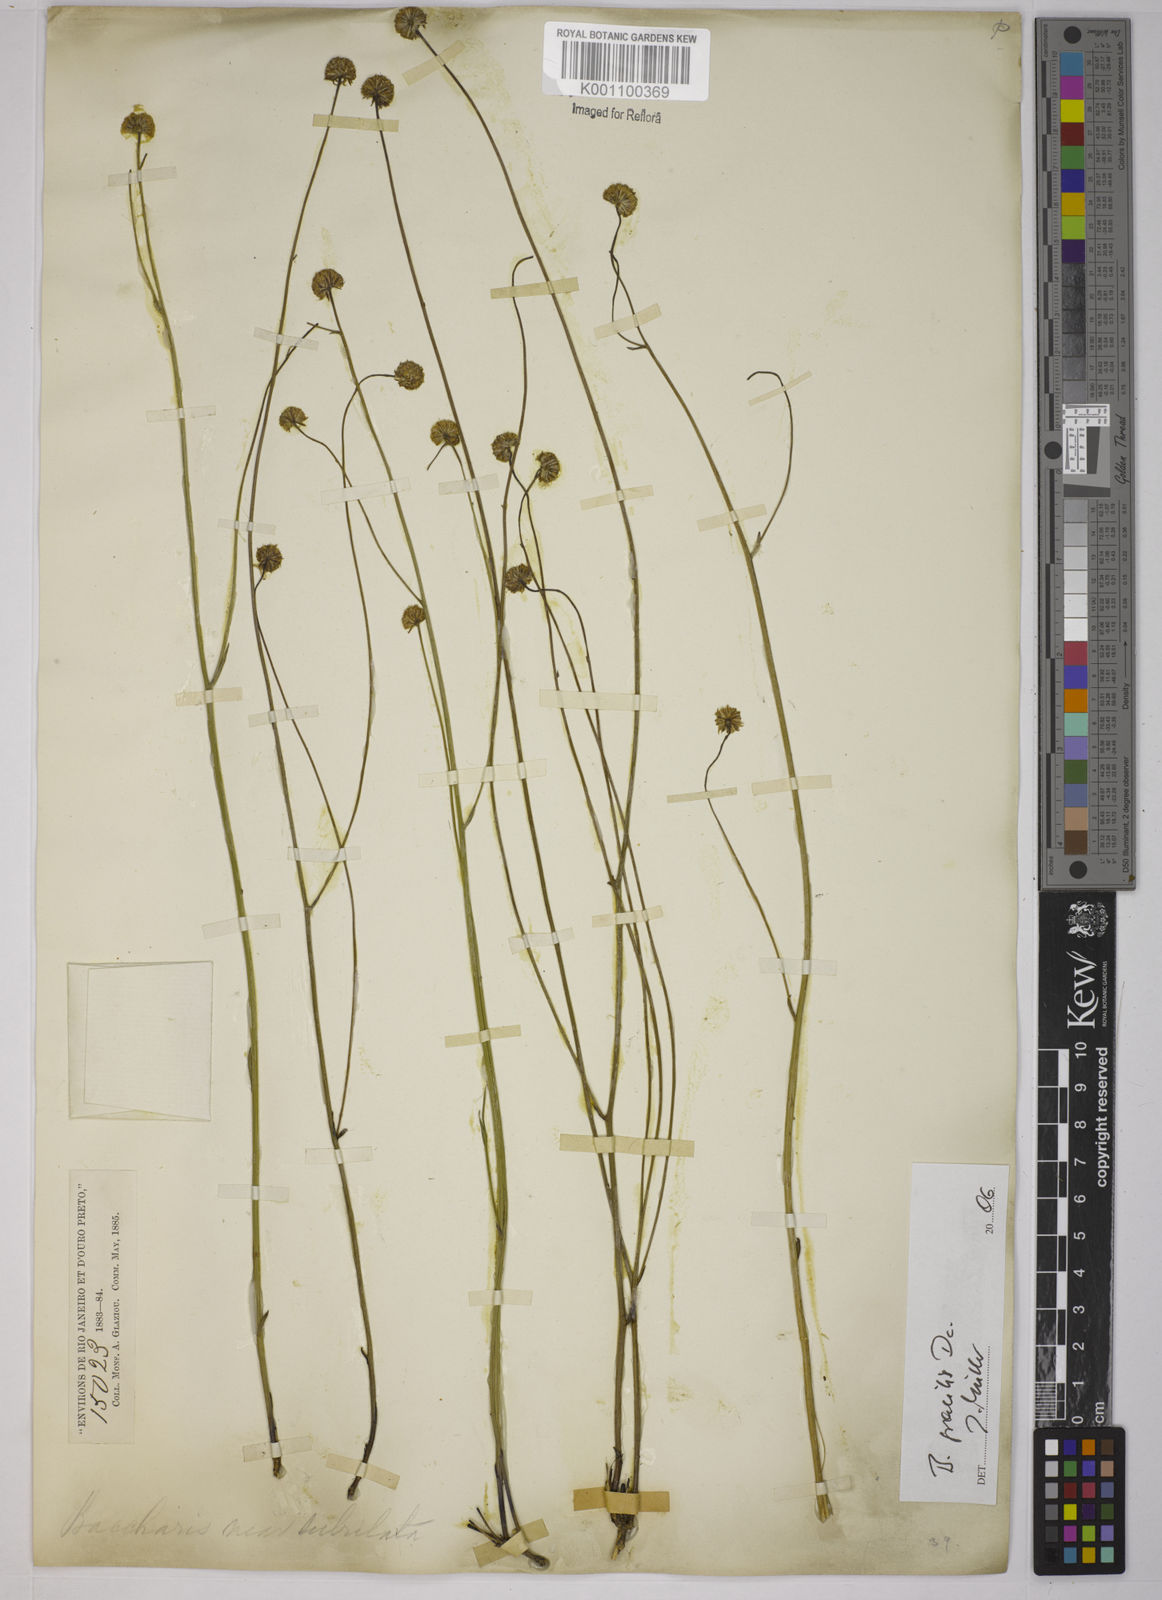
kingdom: Plantae
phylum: Tracheophyta
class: Magnoliopsida
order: Asterales
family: Asteraceae
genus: Baccharis
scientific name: Baccharis gracilis
